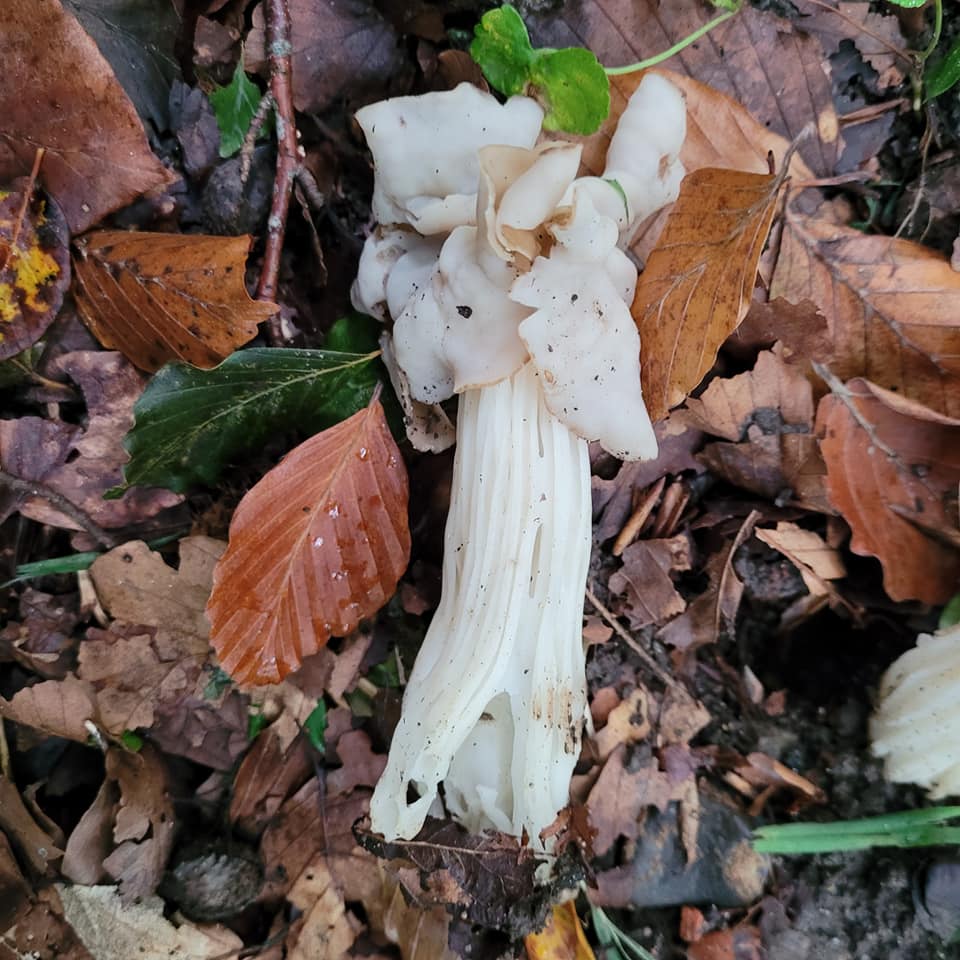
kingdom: Fungi
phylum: Ascomycota
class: Pezizomycetes
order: Pezizales
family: Helvellaceae
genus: Helvella
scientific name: Helvella crispa
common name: kruset foldhat
